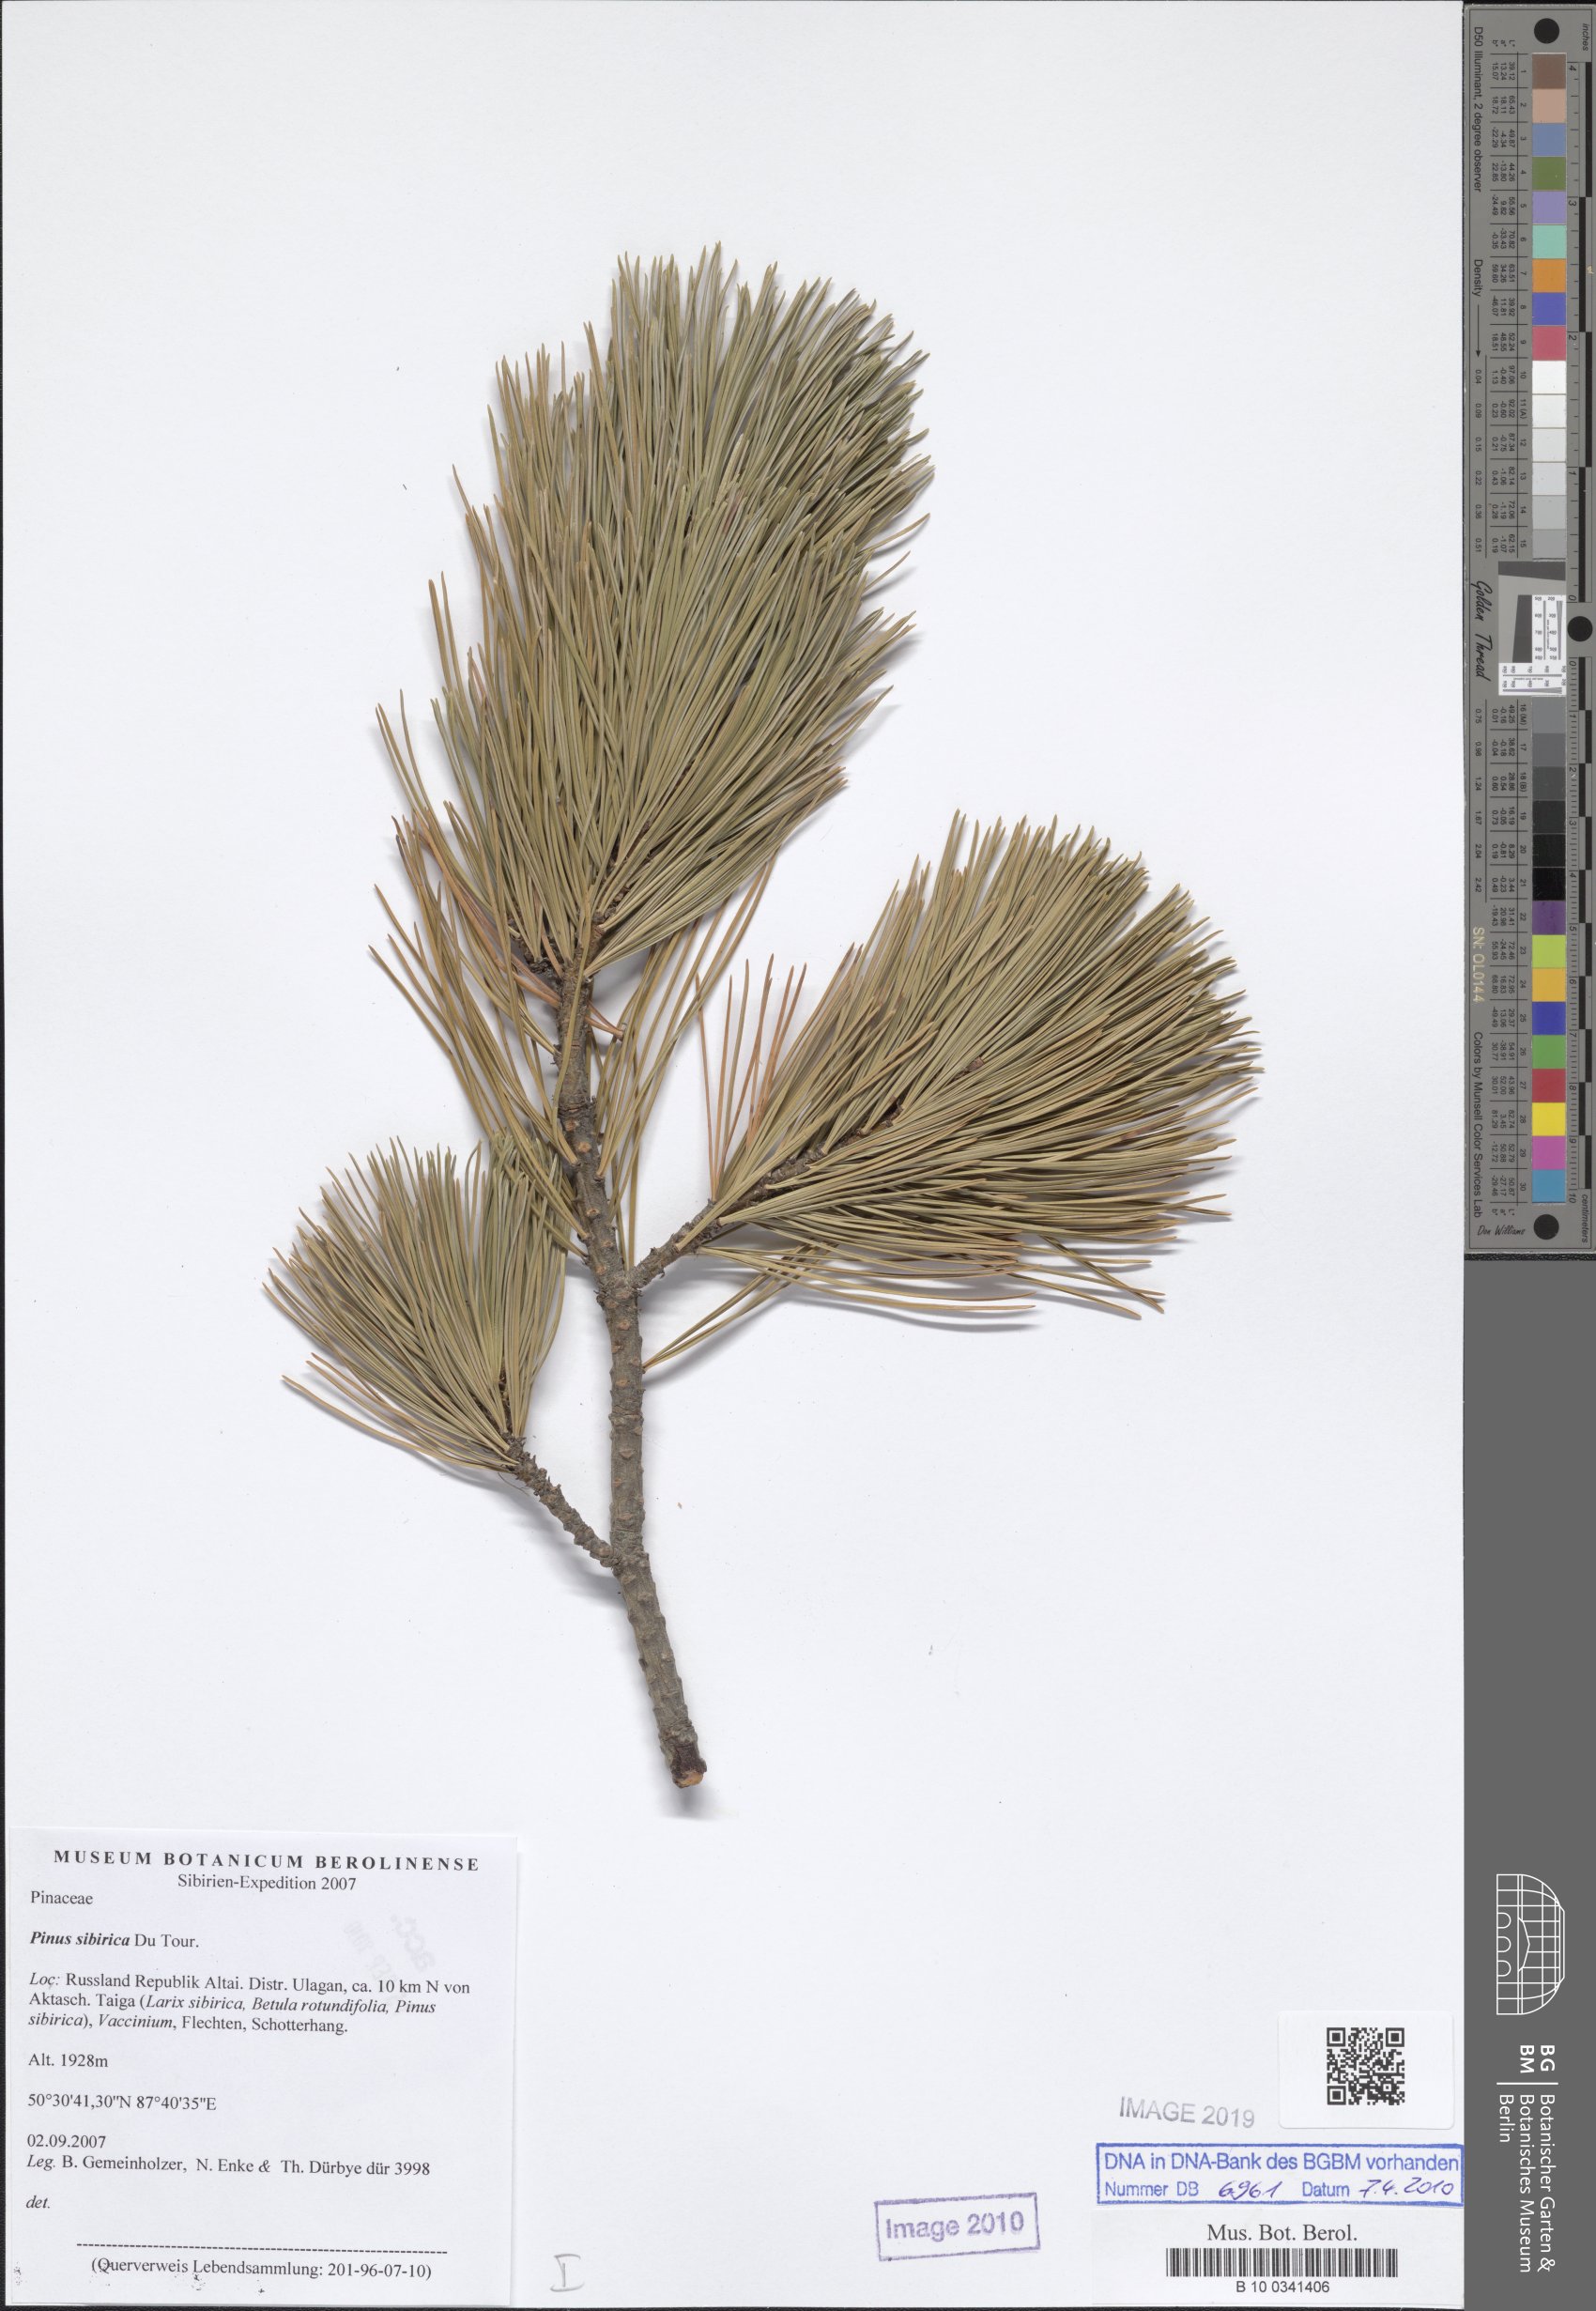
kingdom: Plantae
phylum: Tracheophyta
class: Pinopsida
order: Pinales
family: Pinaceae
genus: Pinus
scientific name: Pinus sibirica
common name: Siberian pine
